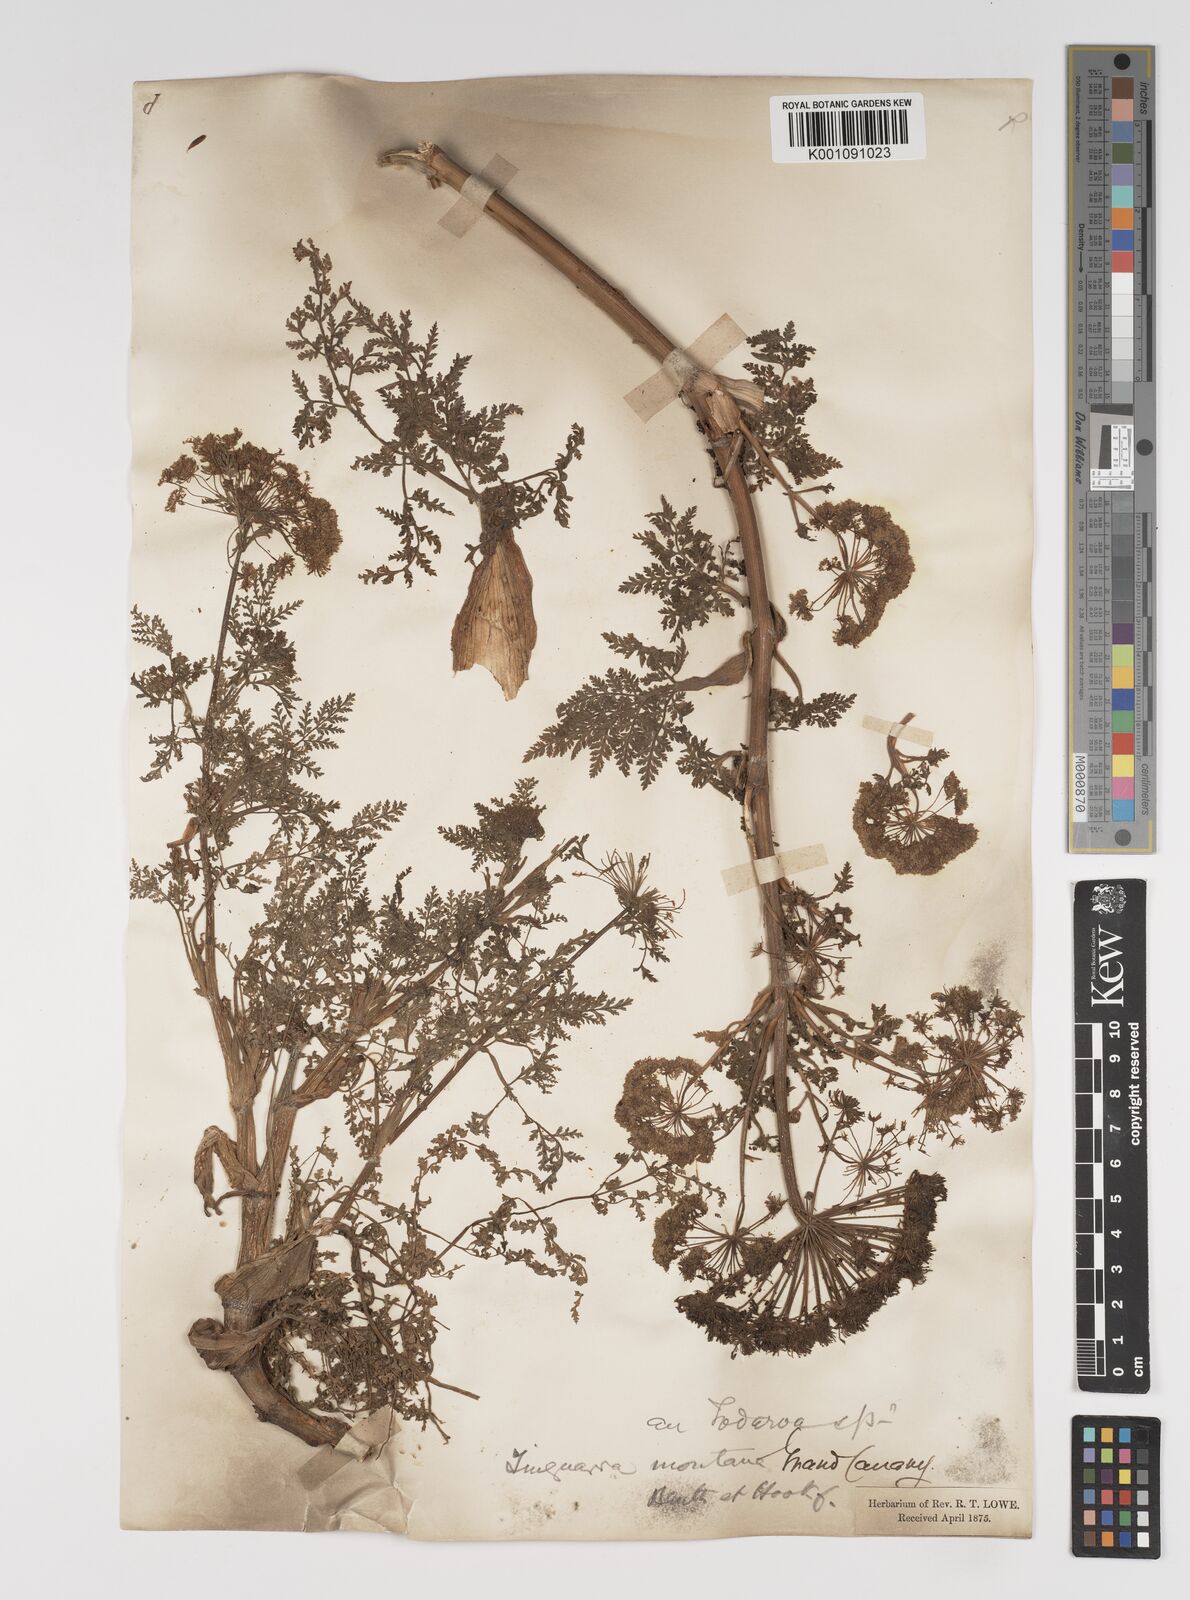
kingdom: Plantae
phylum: Tracheophyta
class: Magnoliopsida
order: Apiales
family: Apiaceae
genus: Athamanta
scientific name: Athamanta montana
